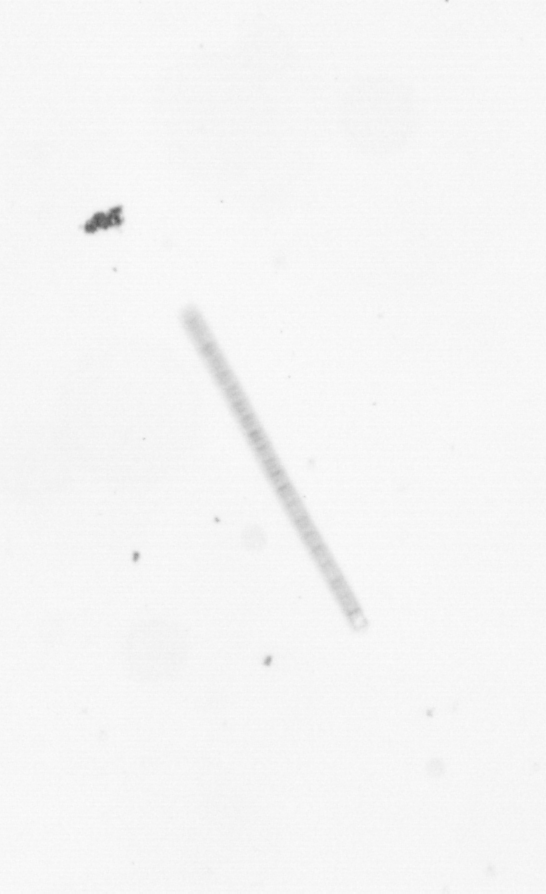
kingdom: Chromista
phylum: Ochrophyta
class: Bacillariophyceae
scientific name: Bacillariophyceae
